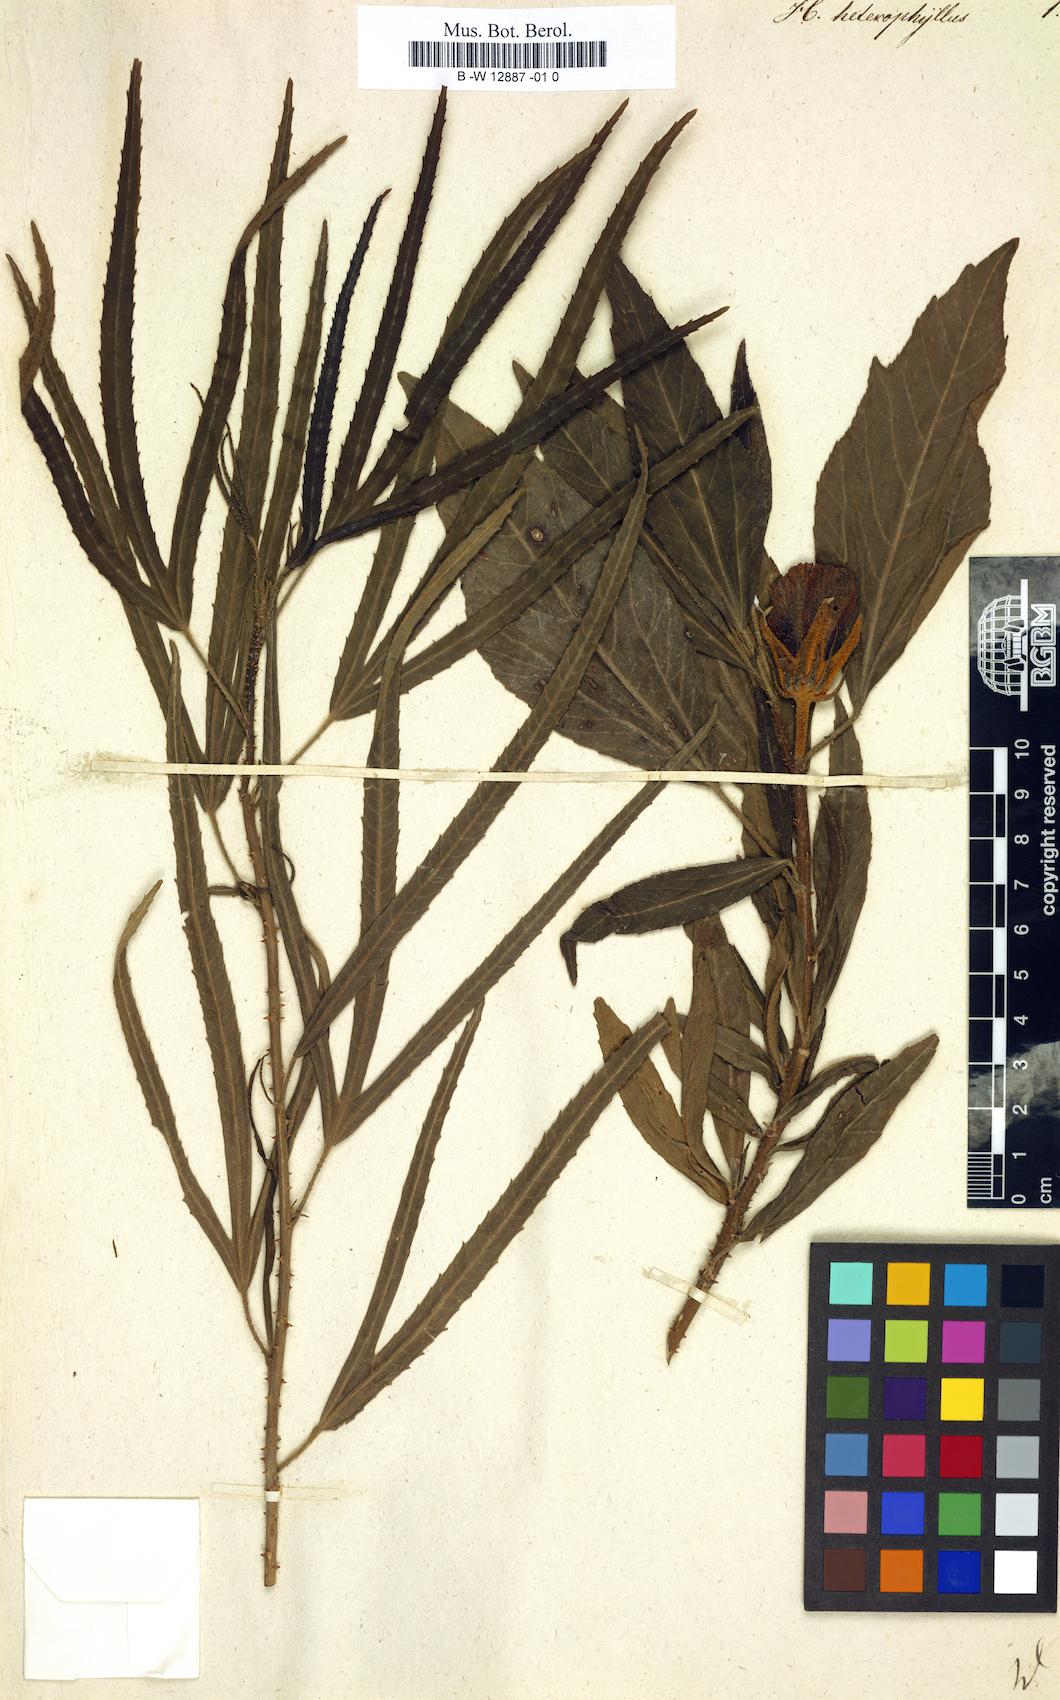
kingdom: Plantae
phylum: Tracheophyta
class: Magnoliopsida
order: Malvales
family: Malvaceae
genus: Hibiscus
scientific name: Hibiscus heterophyllus
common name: Queensland-sorrel
